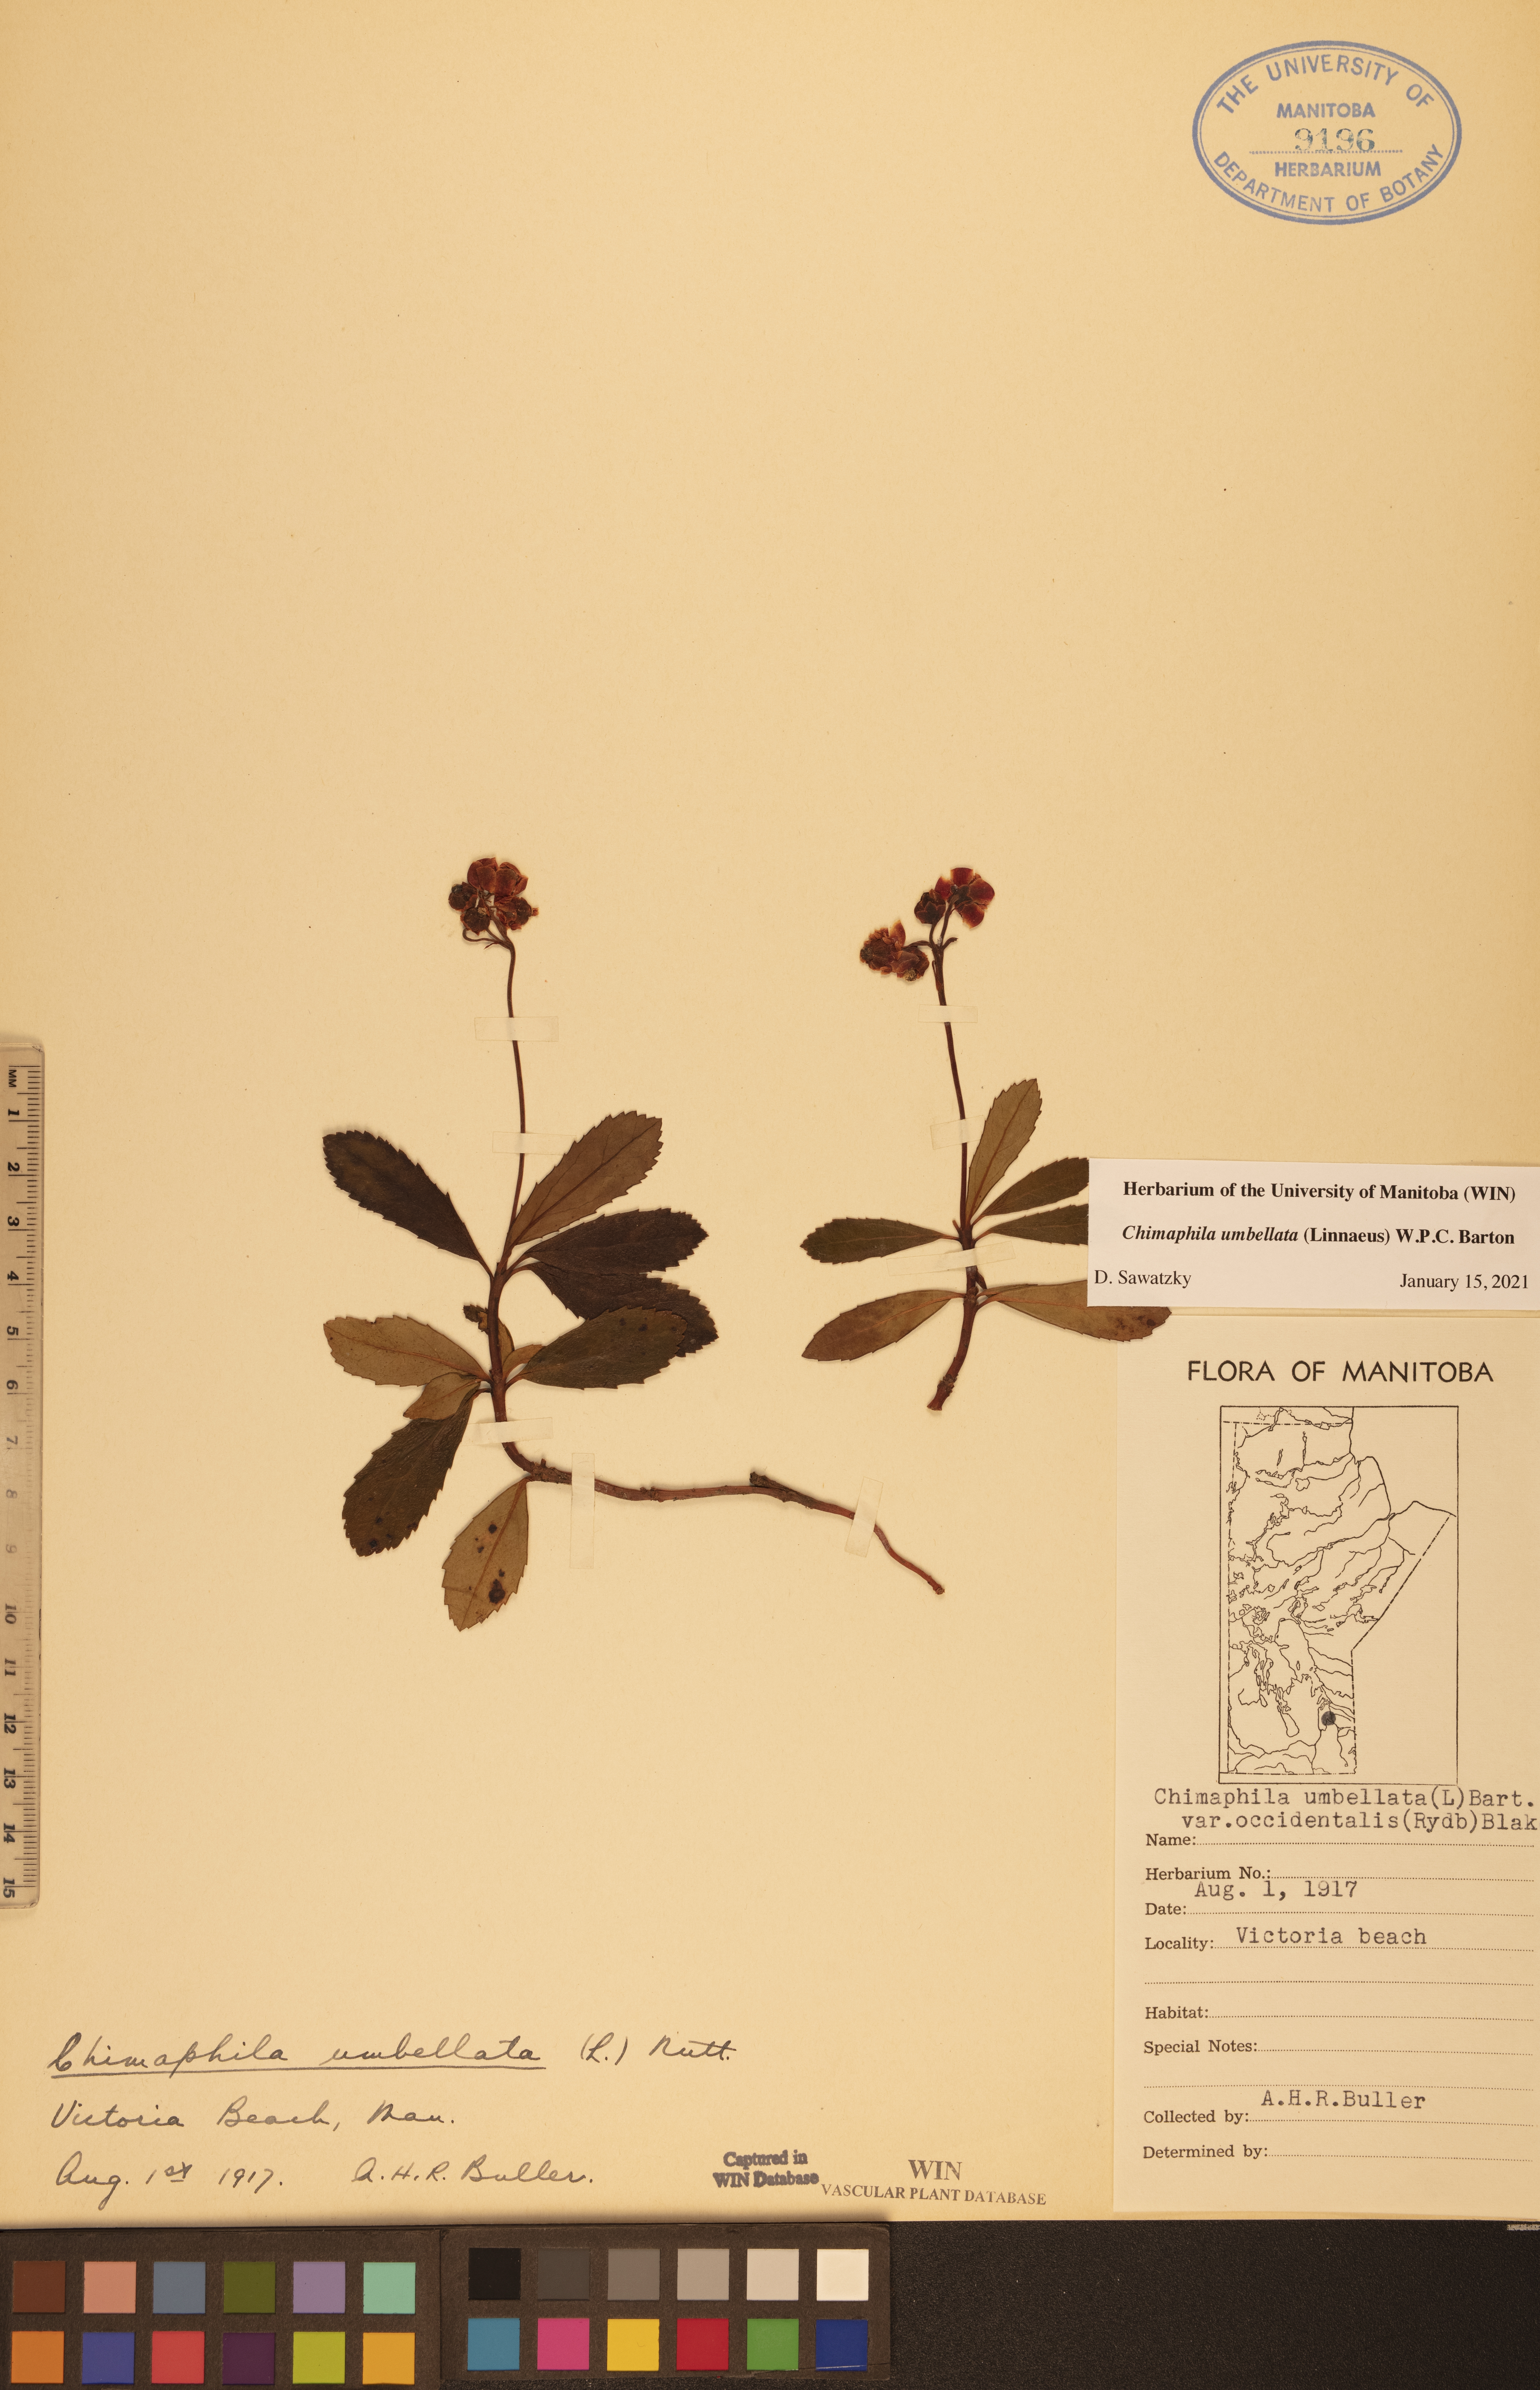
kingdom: Plantae
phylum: Tracheophyta
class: Magnoliopsida
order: Ericales
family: Ericaceae
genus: Chimaphila
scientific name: Chimaphila umbellata
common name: Pipsissewa
